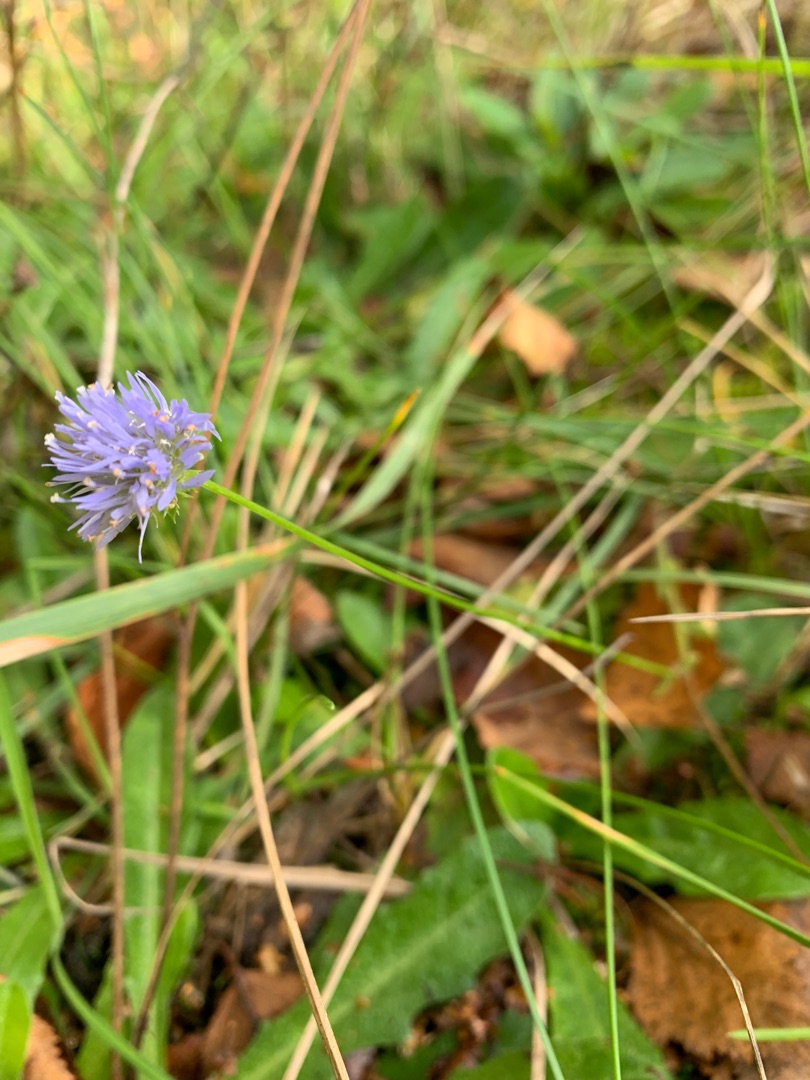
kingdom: Plantae
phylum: Tracheophyta
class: Magnoliopsida
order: Asterales
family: Campanulaceae
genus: Jasione
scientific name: Jasione montana
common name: Blåmunke
